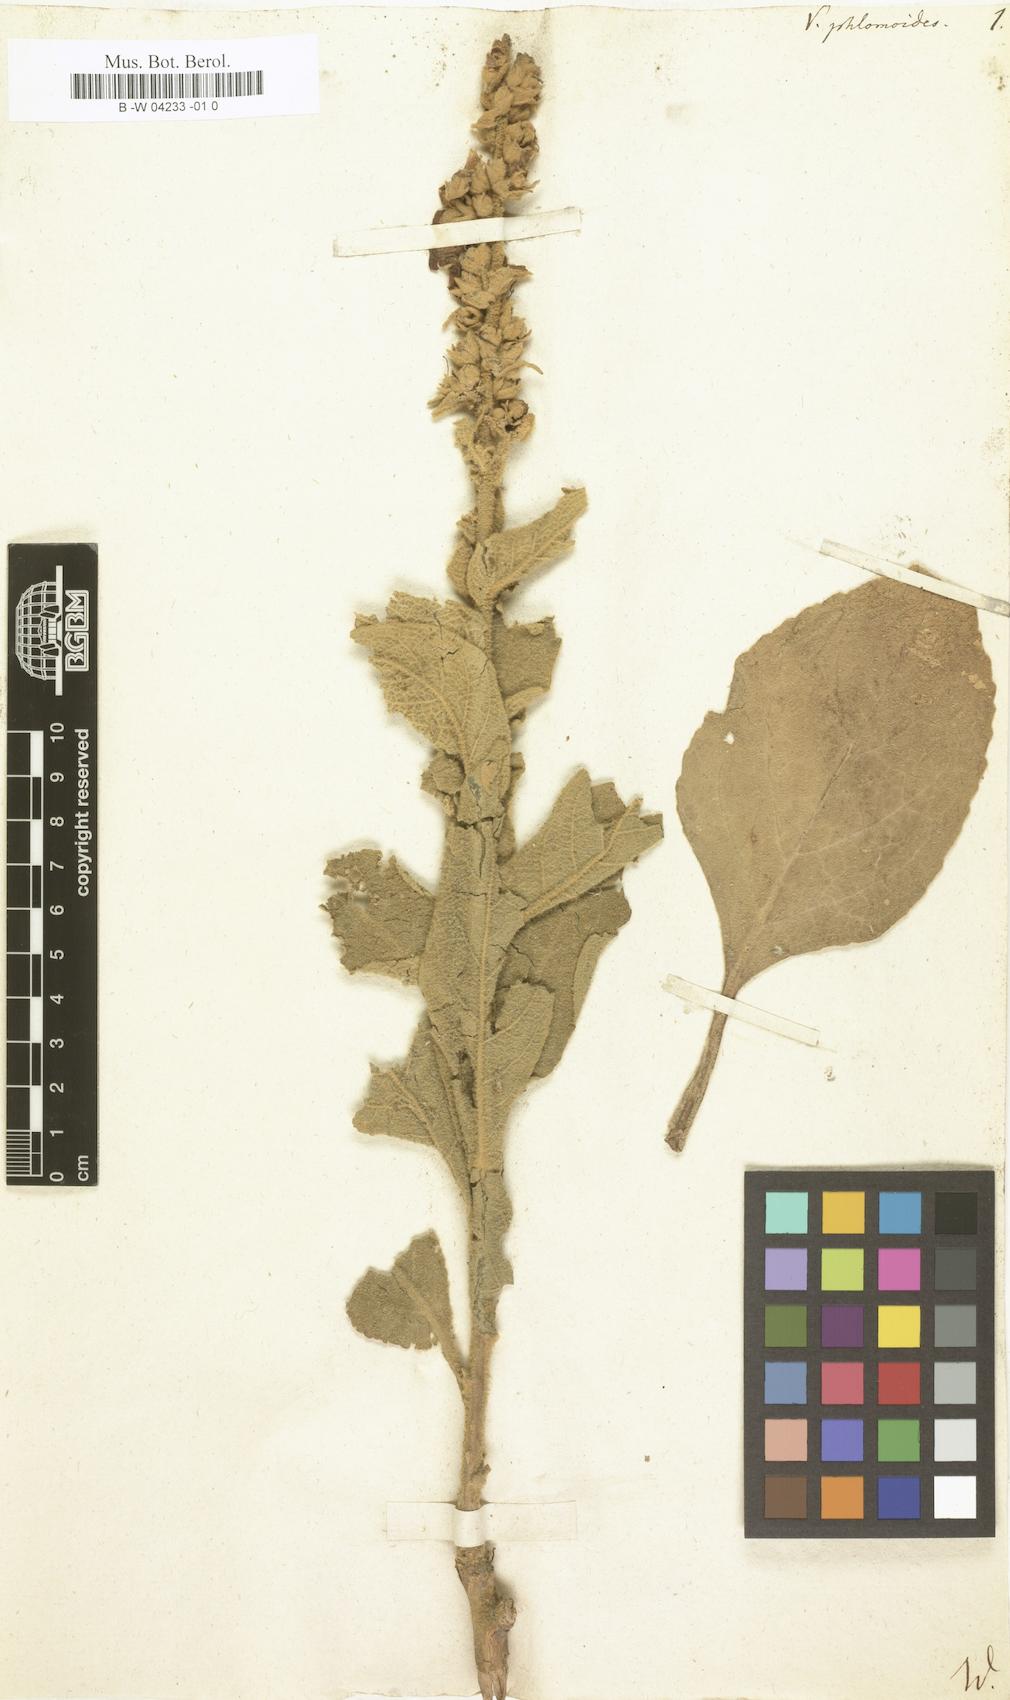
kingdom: Plantae
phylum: Tracheophyta
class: Magnoliopsida
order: Lamiales
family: Scrophulariaceae
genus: Verbascum
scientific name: Verbascum phlomoides
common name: Orange mullein
